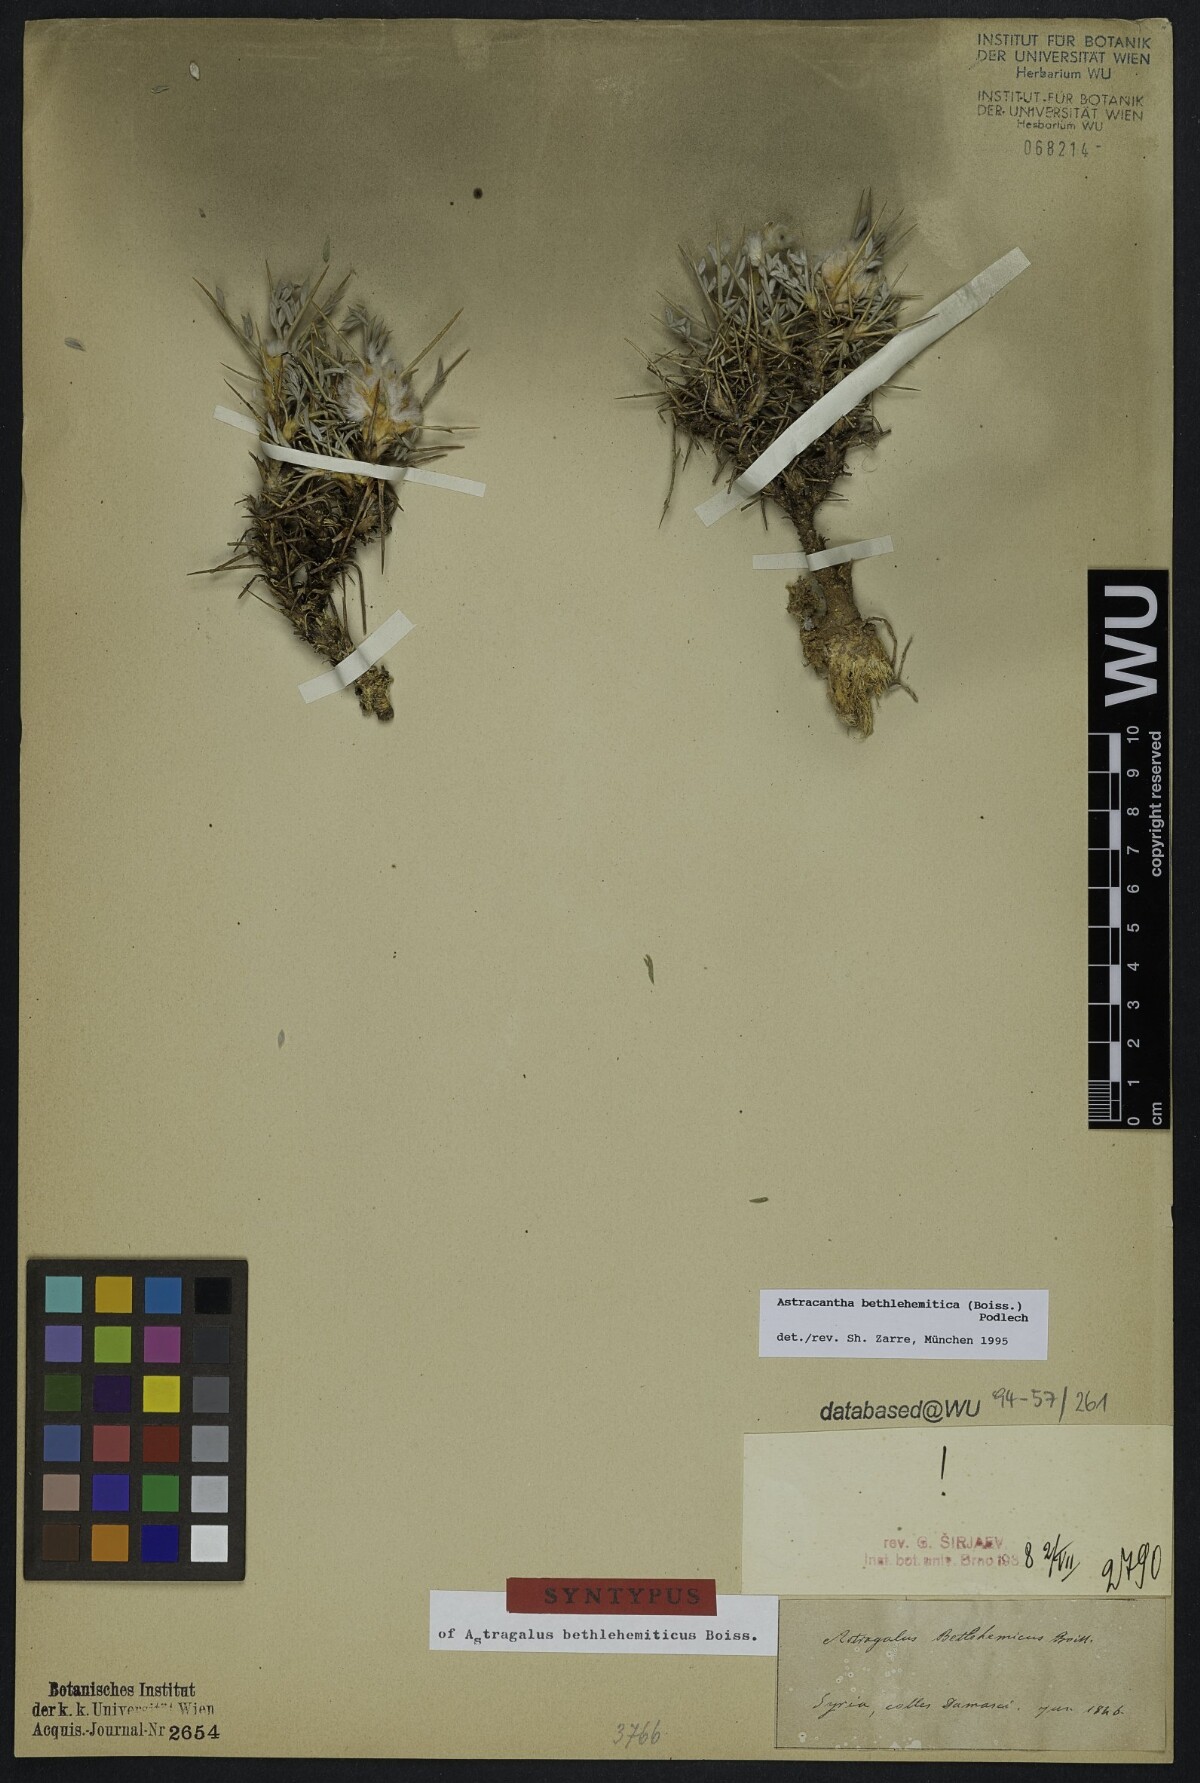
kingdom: Plantae
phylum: Tracheophyta
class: Magnoliopsida
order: Fabales
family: Fabaceae
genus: Astragalus
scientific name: Astragalus bethlehemiticus
